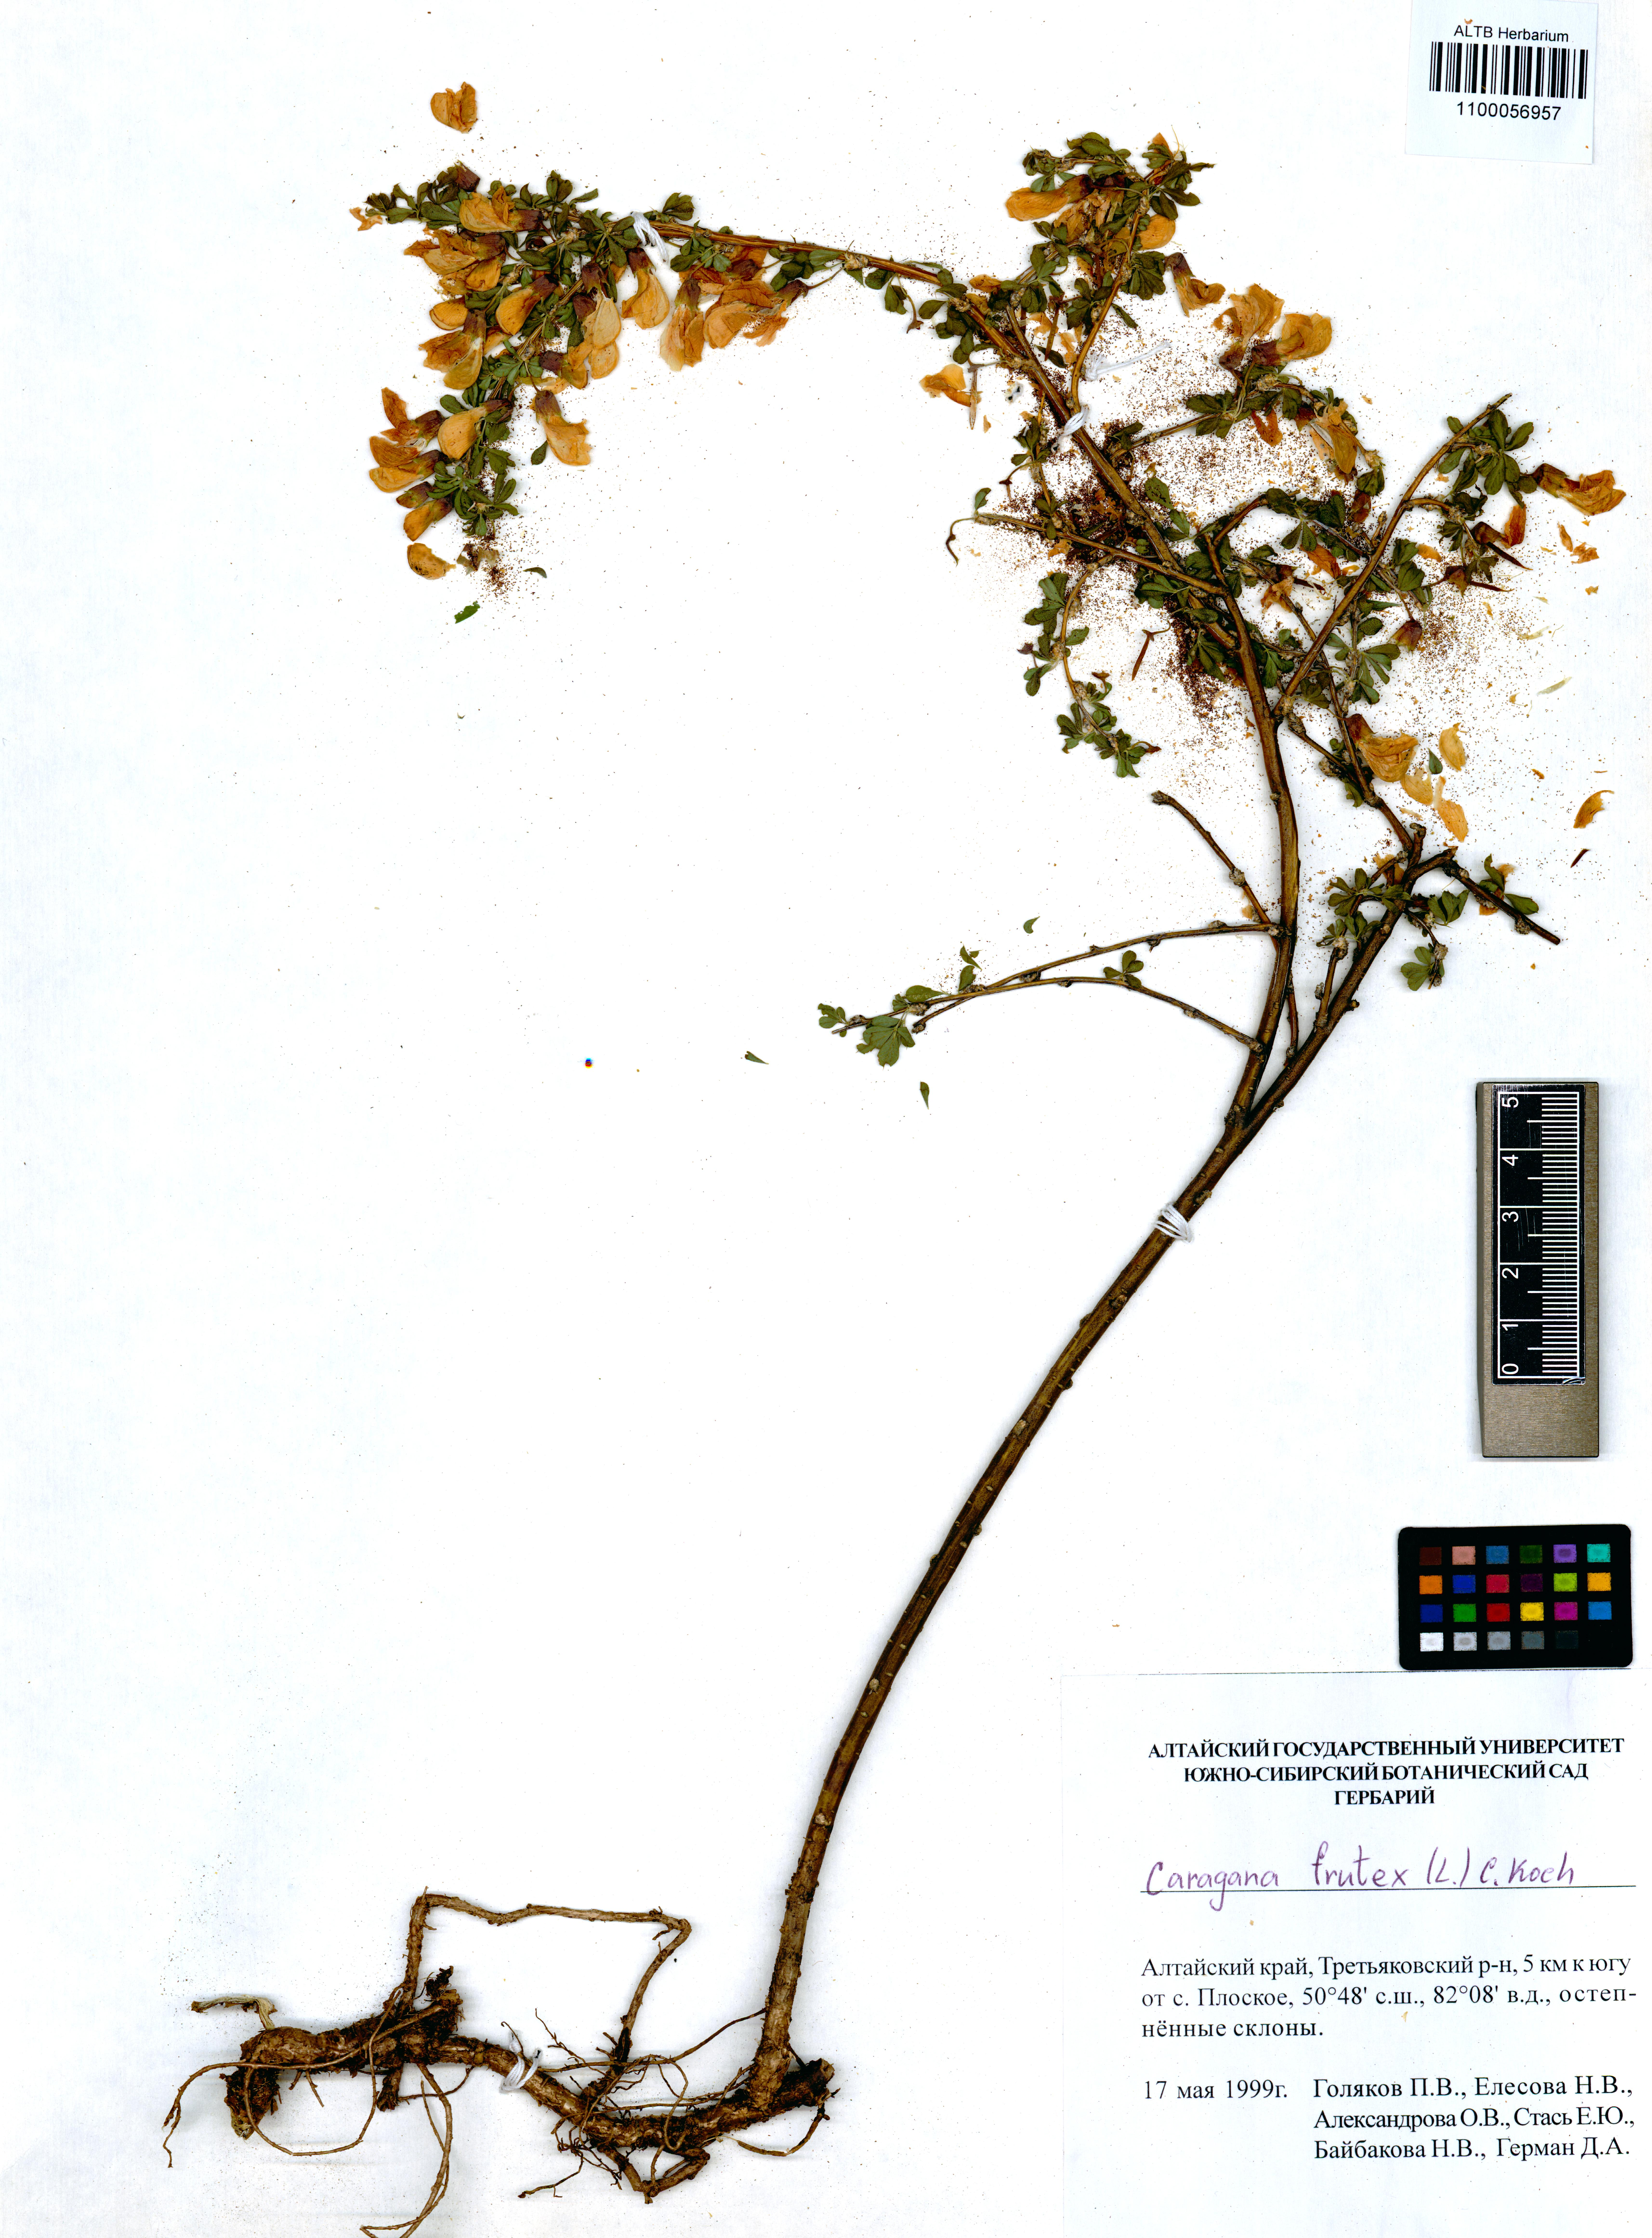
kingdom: Plantae
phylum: Tracheophyta
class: Magnoliopsida
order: Fabales
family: Fabaceae
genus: Caragana
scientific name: Caragana frutex
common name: Russian peashrub
